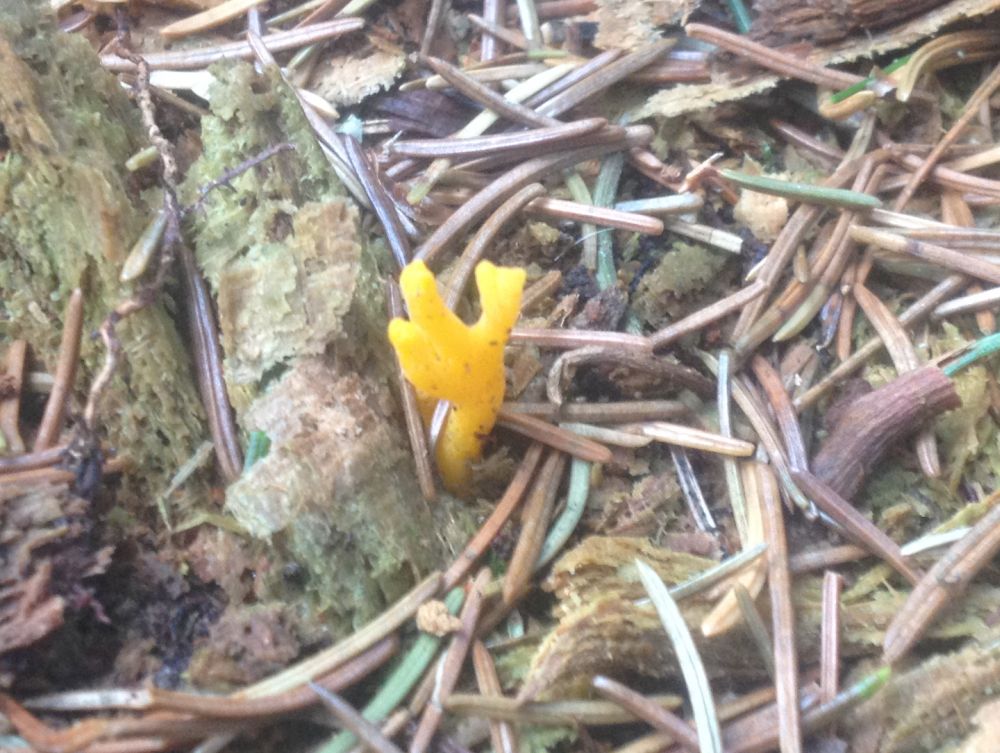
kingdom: Fungi
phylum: Basidiomycota
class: Dacrymycetes
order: Dacrymycetales
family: Dacrymycetaceae
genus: Calocera
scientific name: Calocera viscosa
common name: almindelig guldgaffel
